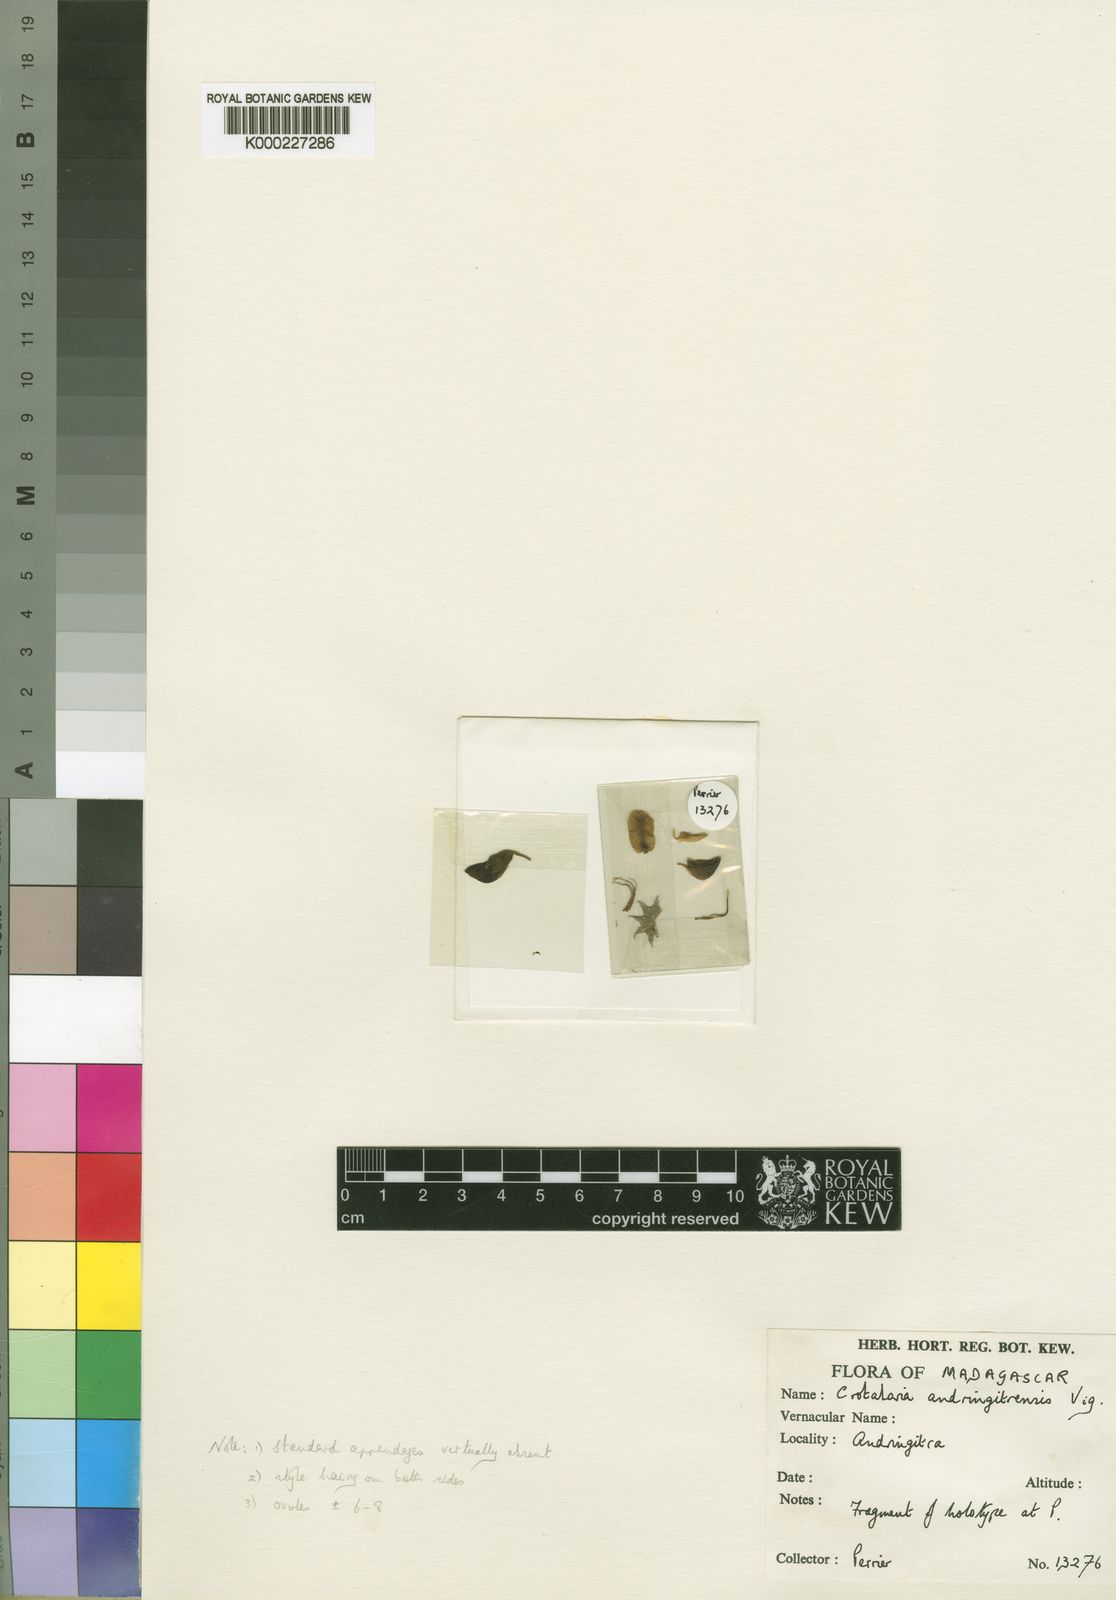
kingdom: Plantae
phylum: Tracheophyta
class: Magnoliopsida
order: Fabales
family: Fabaceae
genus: Crotalaria
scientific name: Crotalaria andringitrensis
